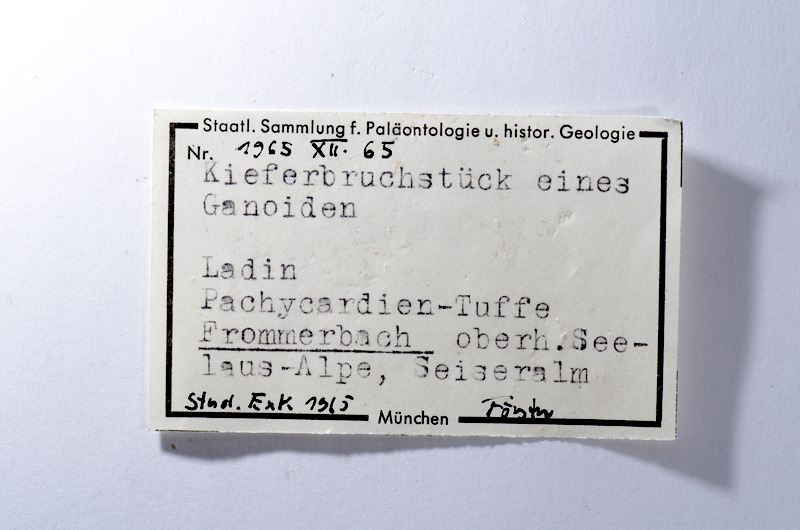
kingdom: Animalia
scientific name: Animalia
